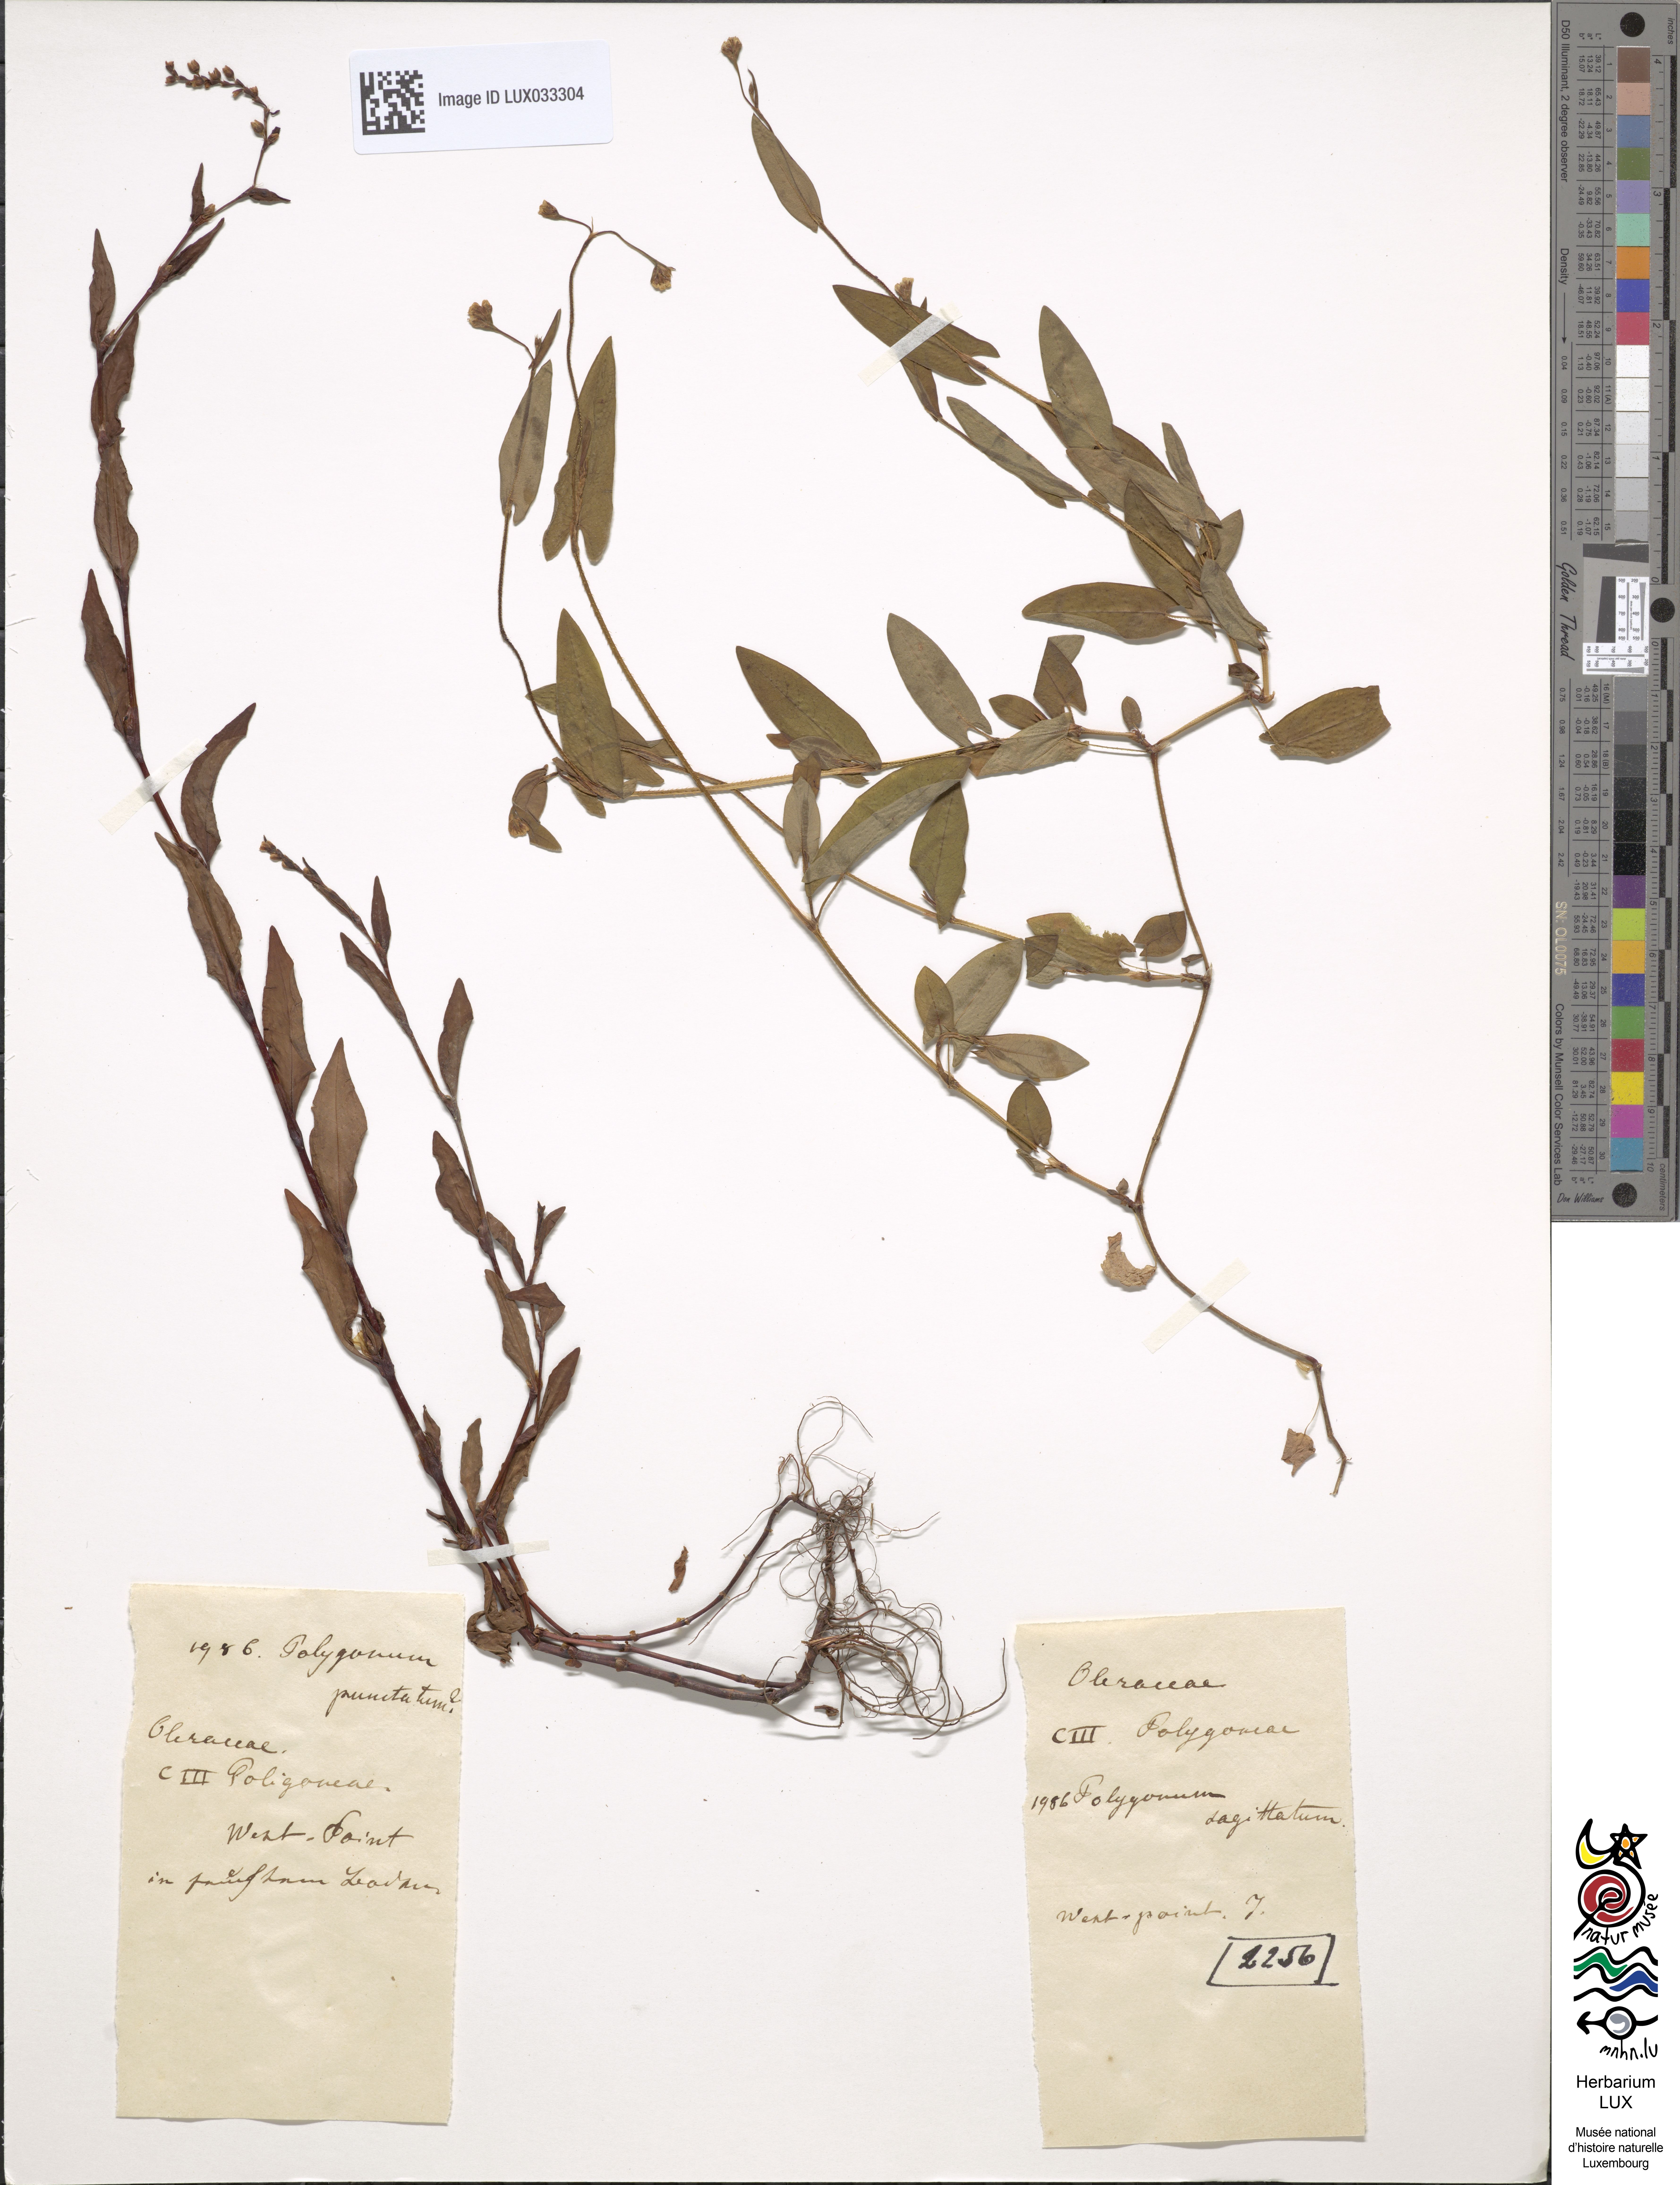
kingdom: Plantae
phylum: Tracheophyta
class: Magnoliopsida
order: Caryophyllales
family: Polygonaceae
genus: Persicaria
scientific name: Persicaria sagittata
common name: American tearthumb
